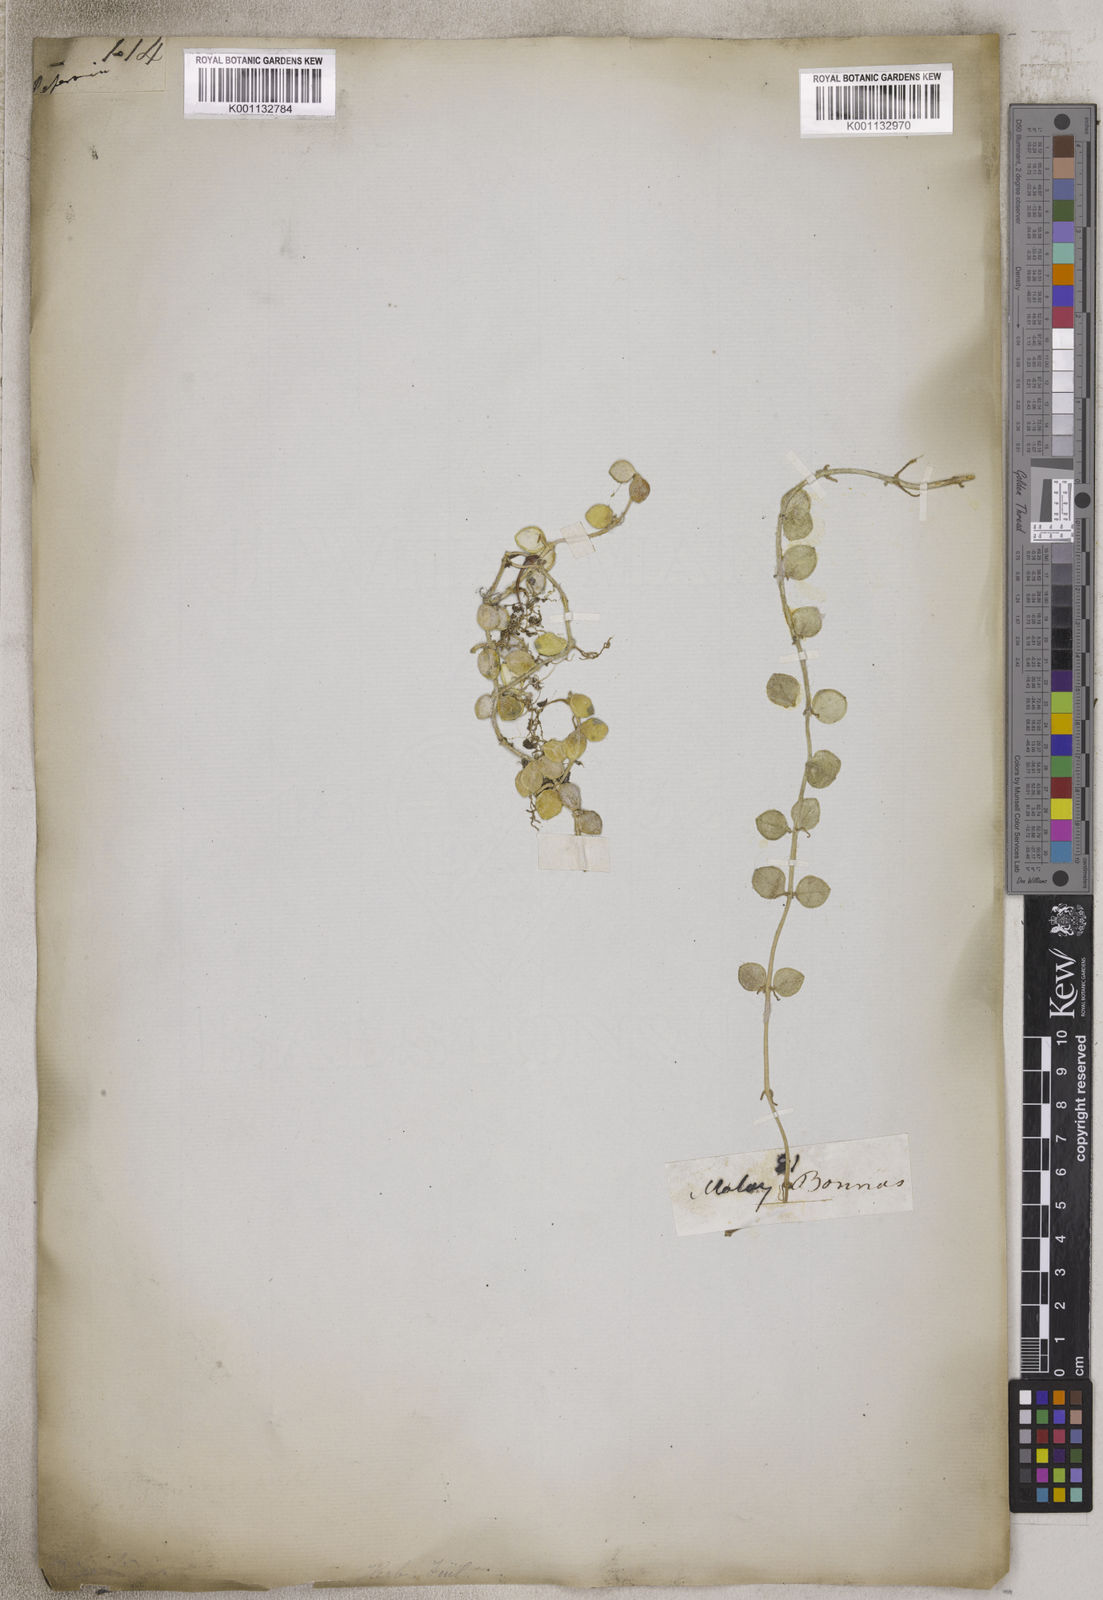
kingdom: Plantae
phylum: Tracheophyta
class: Magnoliopsida
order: Gentianales
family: Apocynaceae
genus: Dischidia
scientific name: Dischidia
